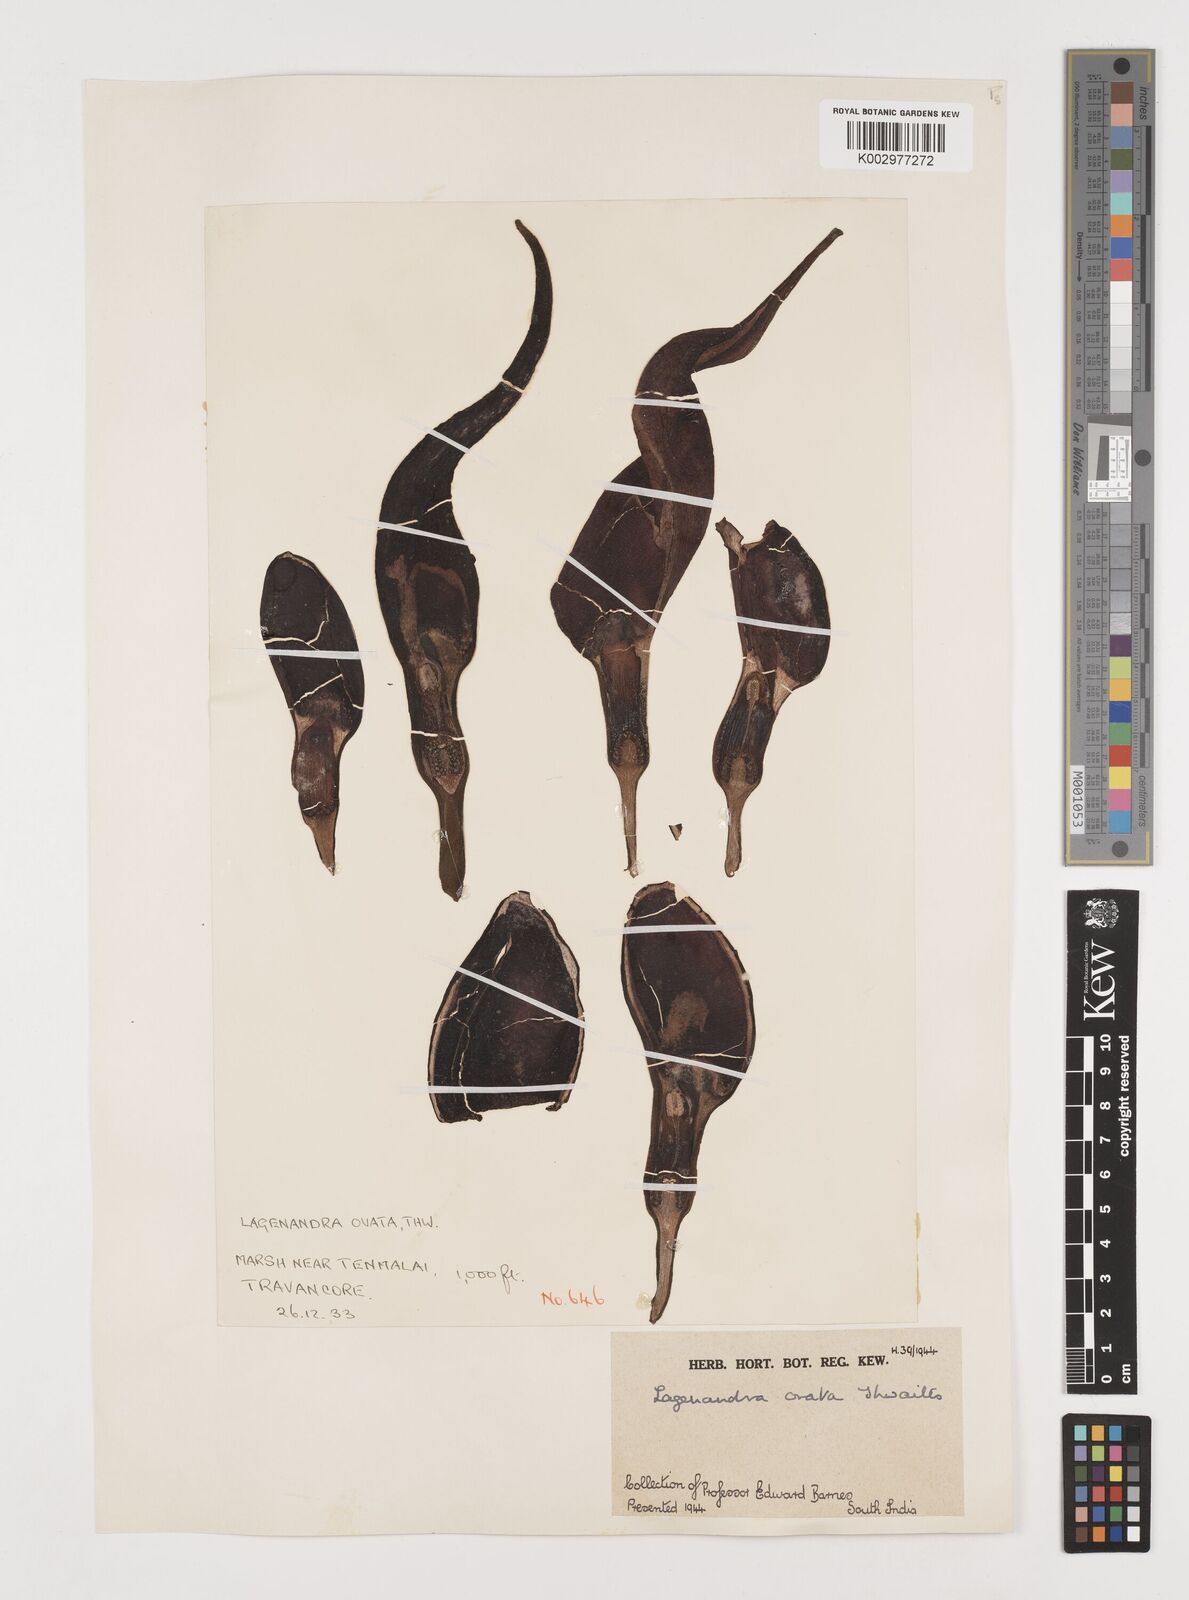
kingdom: Plantae
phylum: Tracheophyta
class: Liliopsida
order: Alismatales
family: Araceae
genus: Lagenandra
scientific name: Lagenandra ovata
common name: Malayan sword
